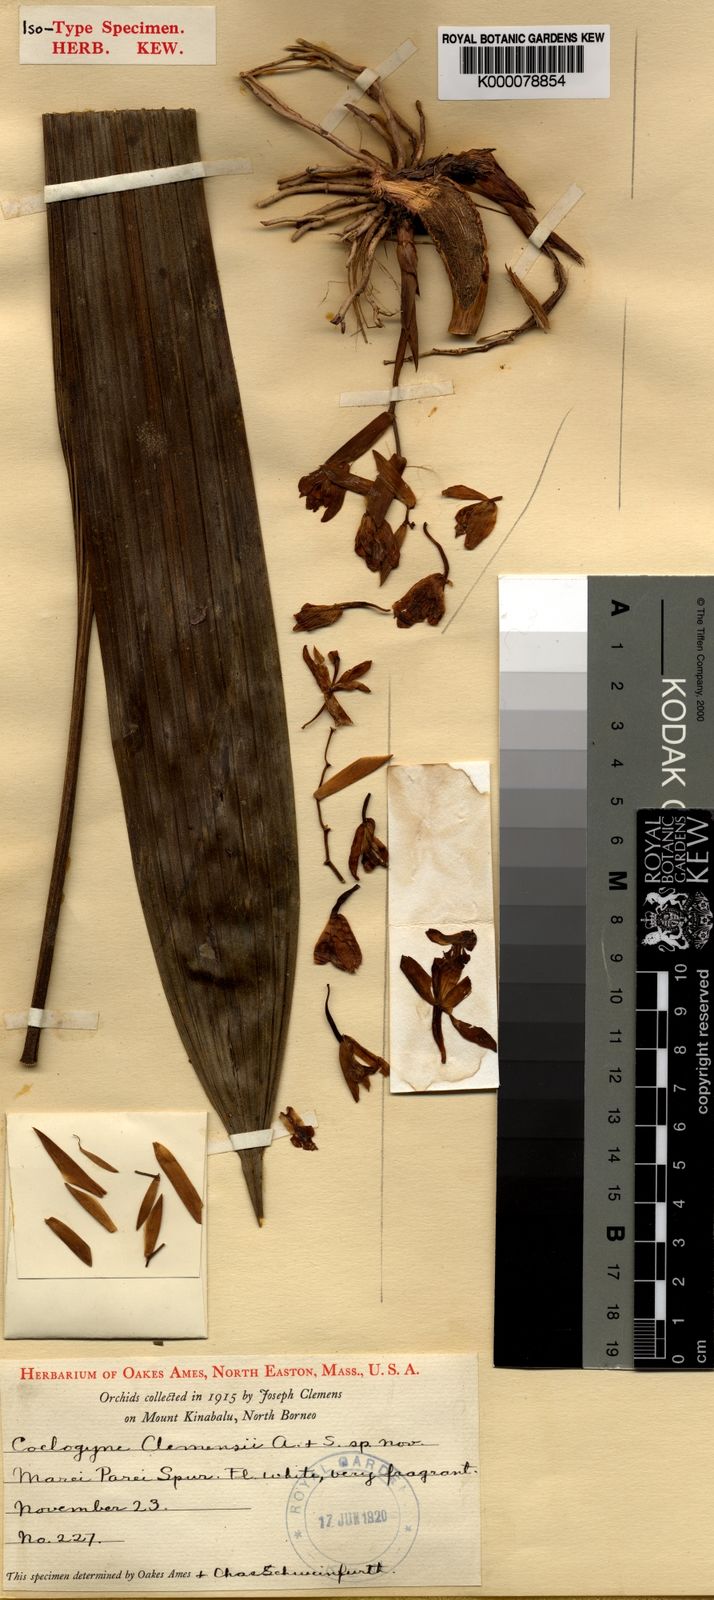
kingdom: Plantae
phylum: Tracheophyta
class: Liliopsida
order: Asparagales
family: Orchidaceae
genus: Coelogyne
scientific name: Coelogyne clemensii
